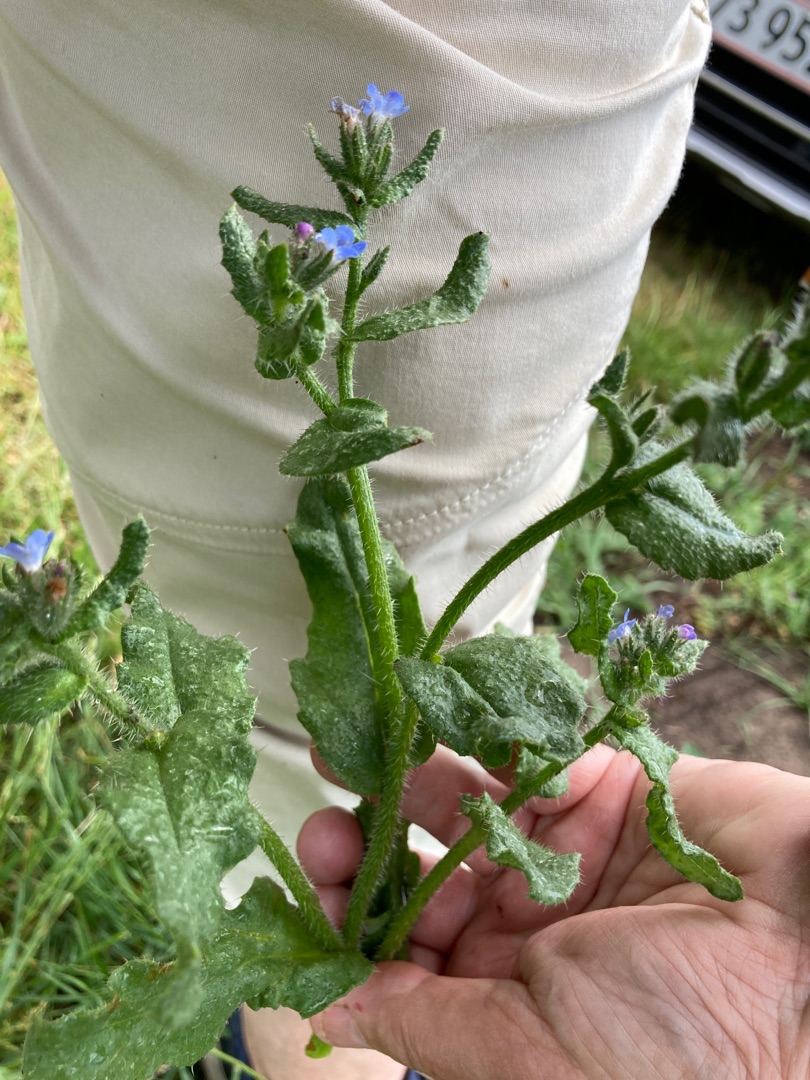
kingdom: Plantae
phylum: Tracheophyta
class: Magnoliopsida
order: Boraginales
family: Boraginaceae
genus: Lycopsis
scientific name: Lycopsis arvensis
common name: Krumhals
